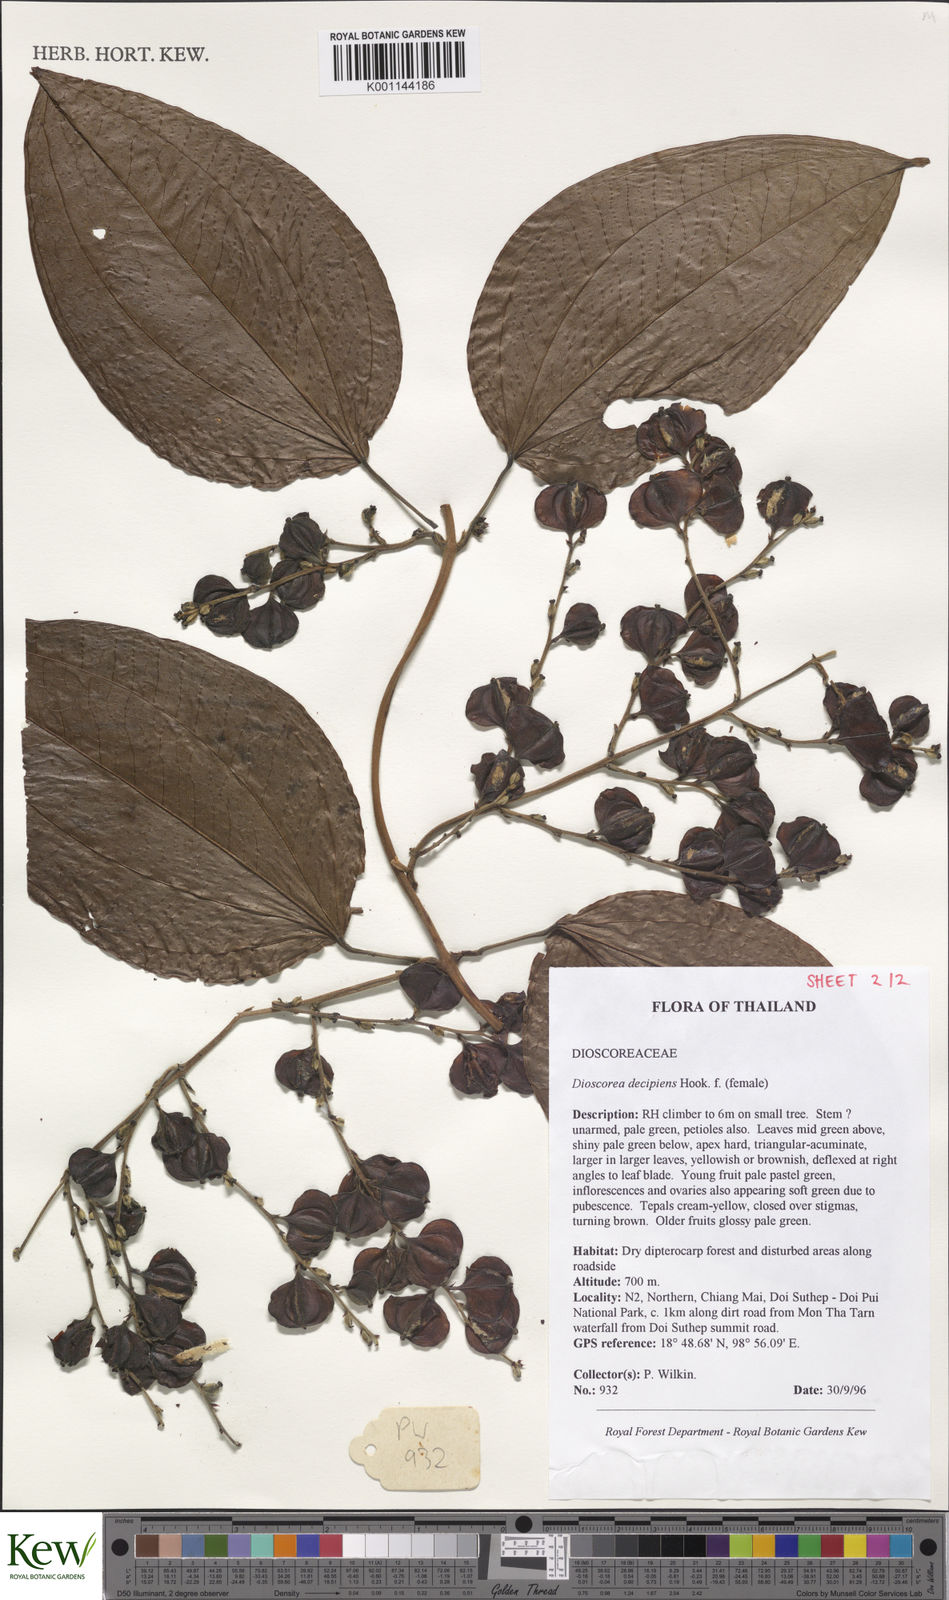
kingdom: Plantae
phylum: Tracheophyta
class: Liliopsida
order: Dioscoreales
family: Dioscoreaceae
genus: Dioscorea
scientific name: Dioscorea decipiens
